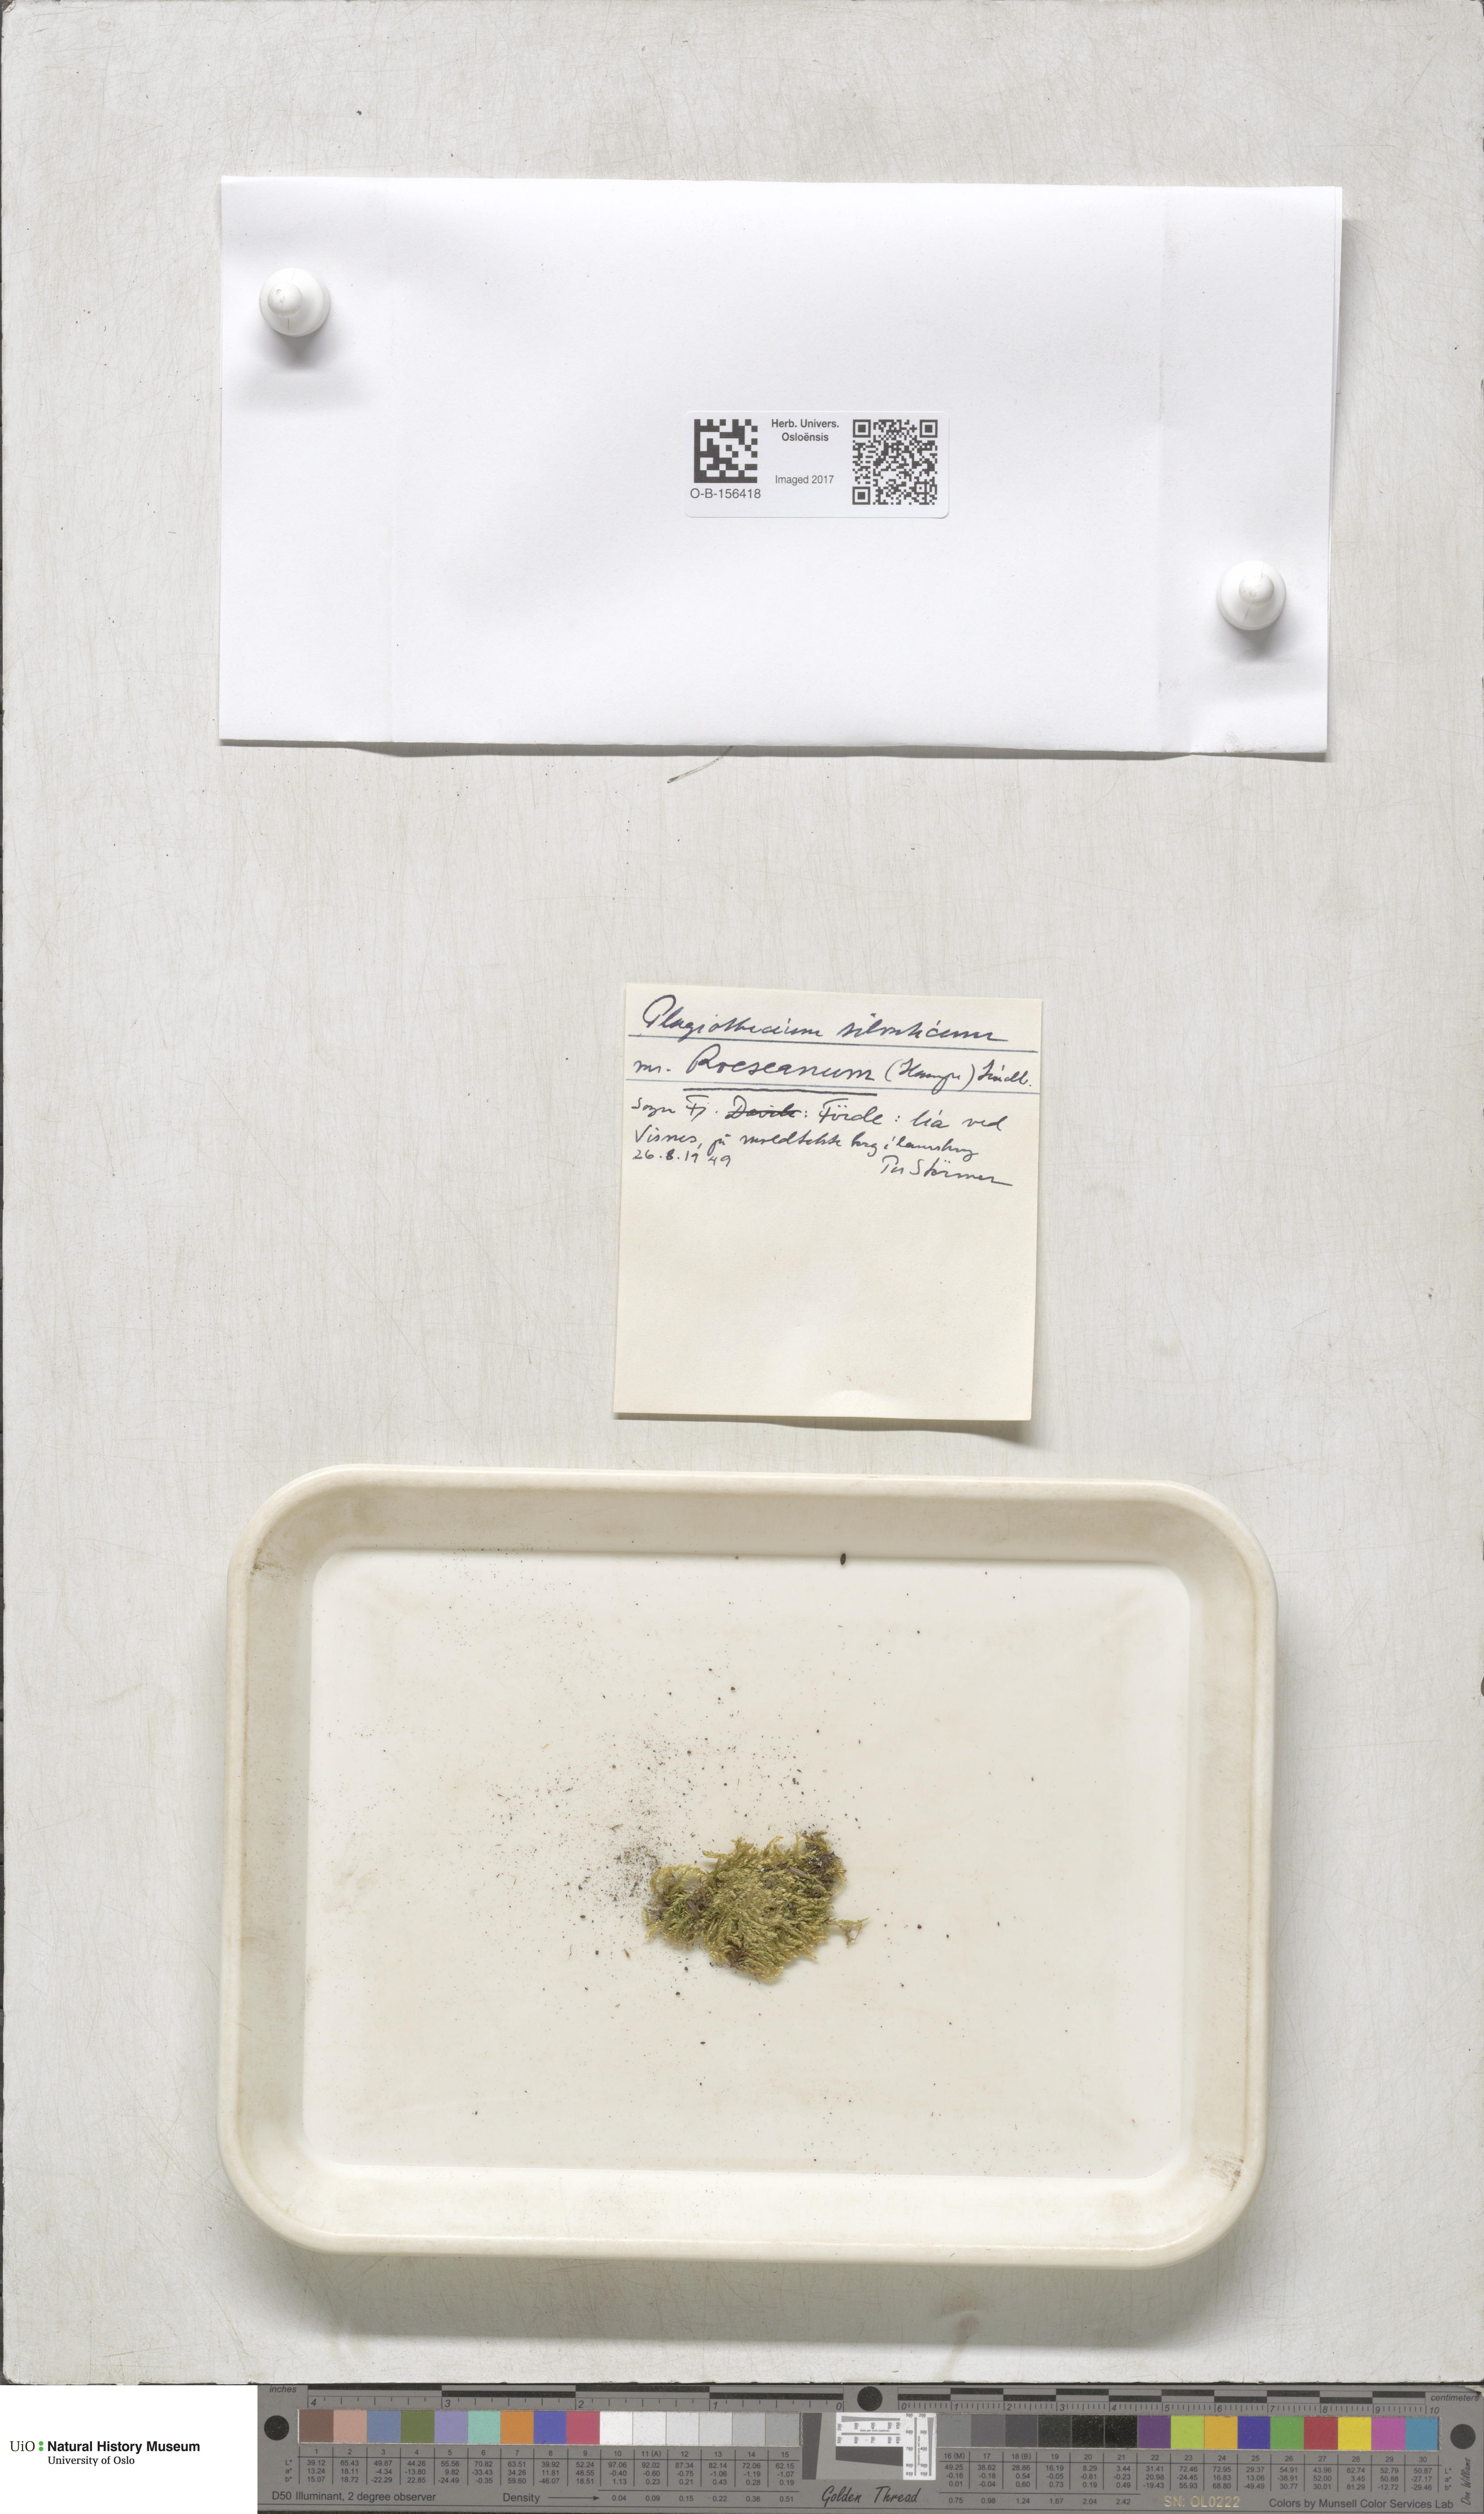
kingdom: Plantae
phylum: Bryophyta
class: Bryopsida
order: Hypnales
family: Plagiotheciaceae
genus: Plagiothecium
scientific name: Plagiothecium nemorale
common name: Woodsy silk-moss
